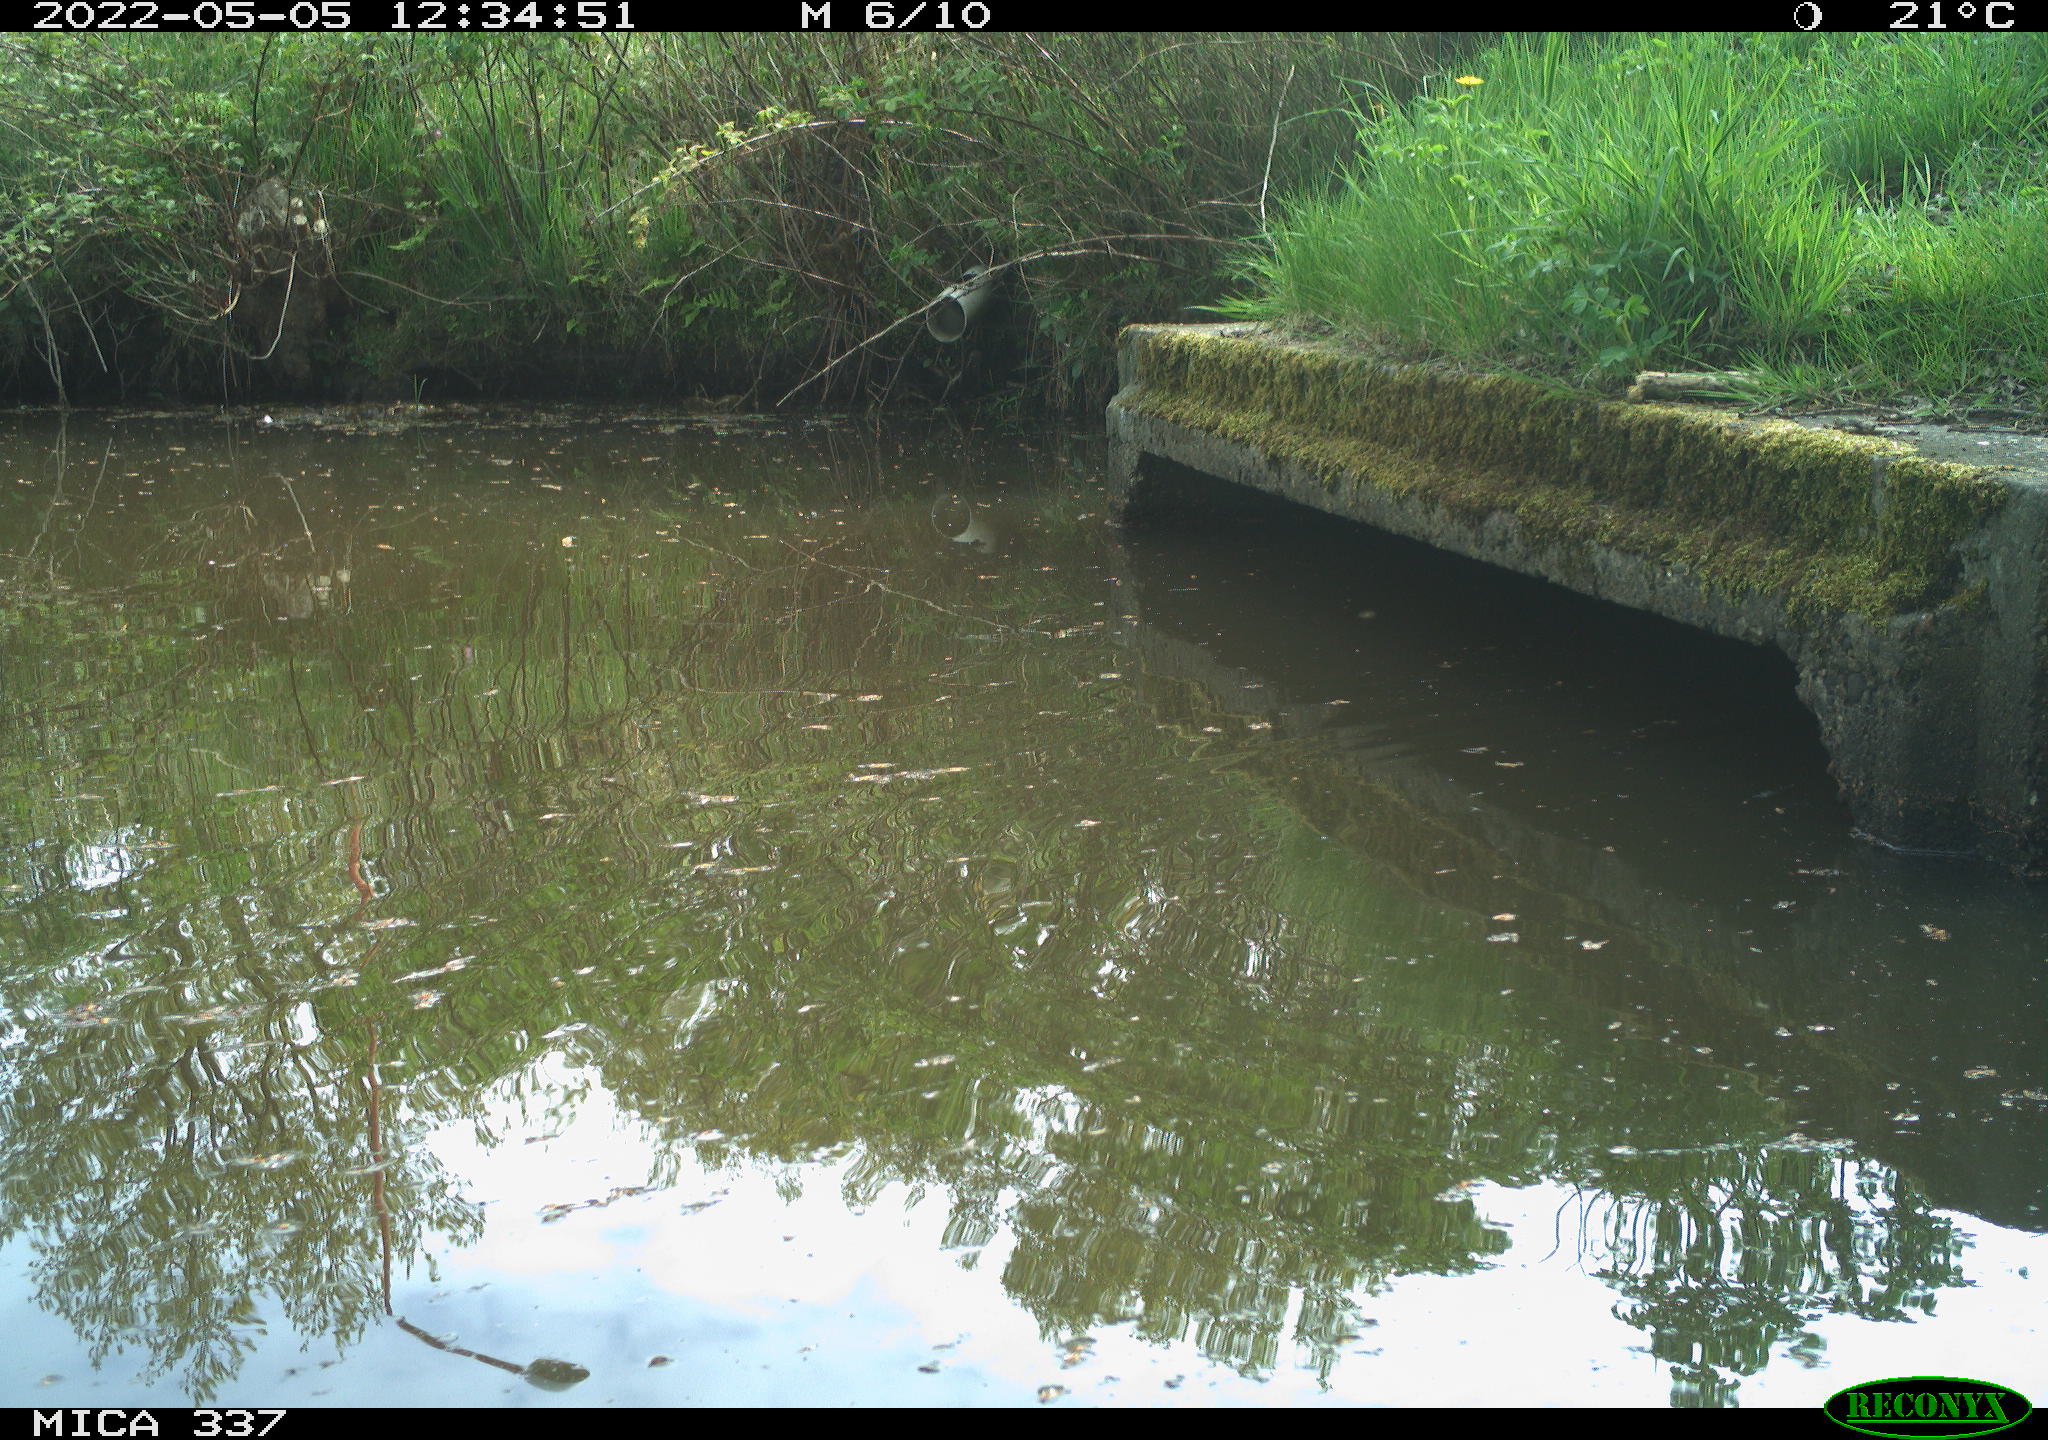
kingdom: Animalia
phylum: Chordata
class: Aves
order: Gruiformes
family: Rallidae
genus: Gallinula
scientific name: Gallinula chloropus
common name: Common moorhen
